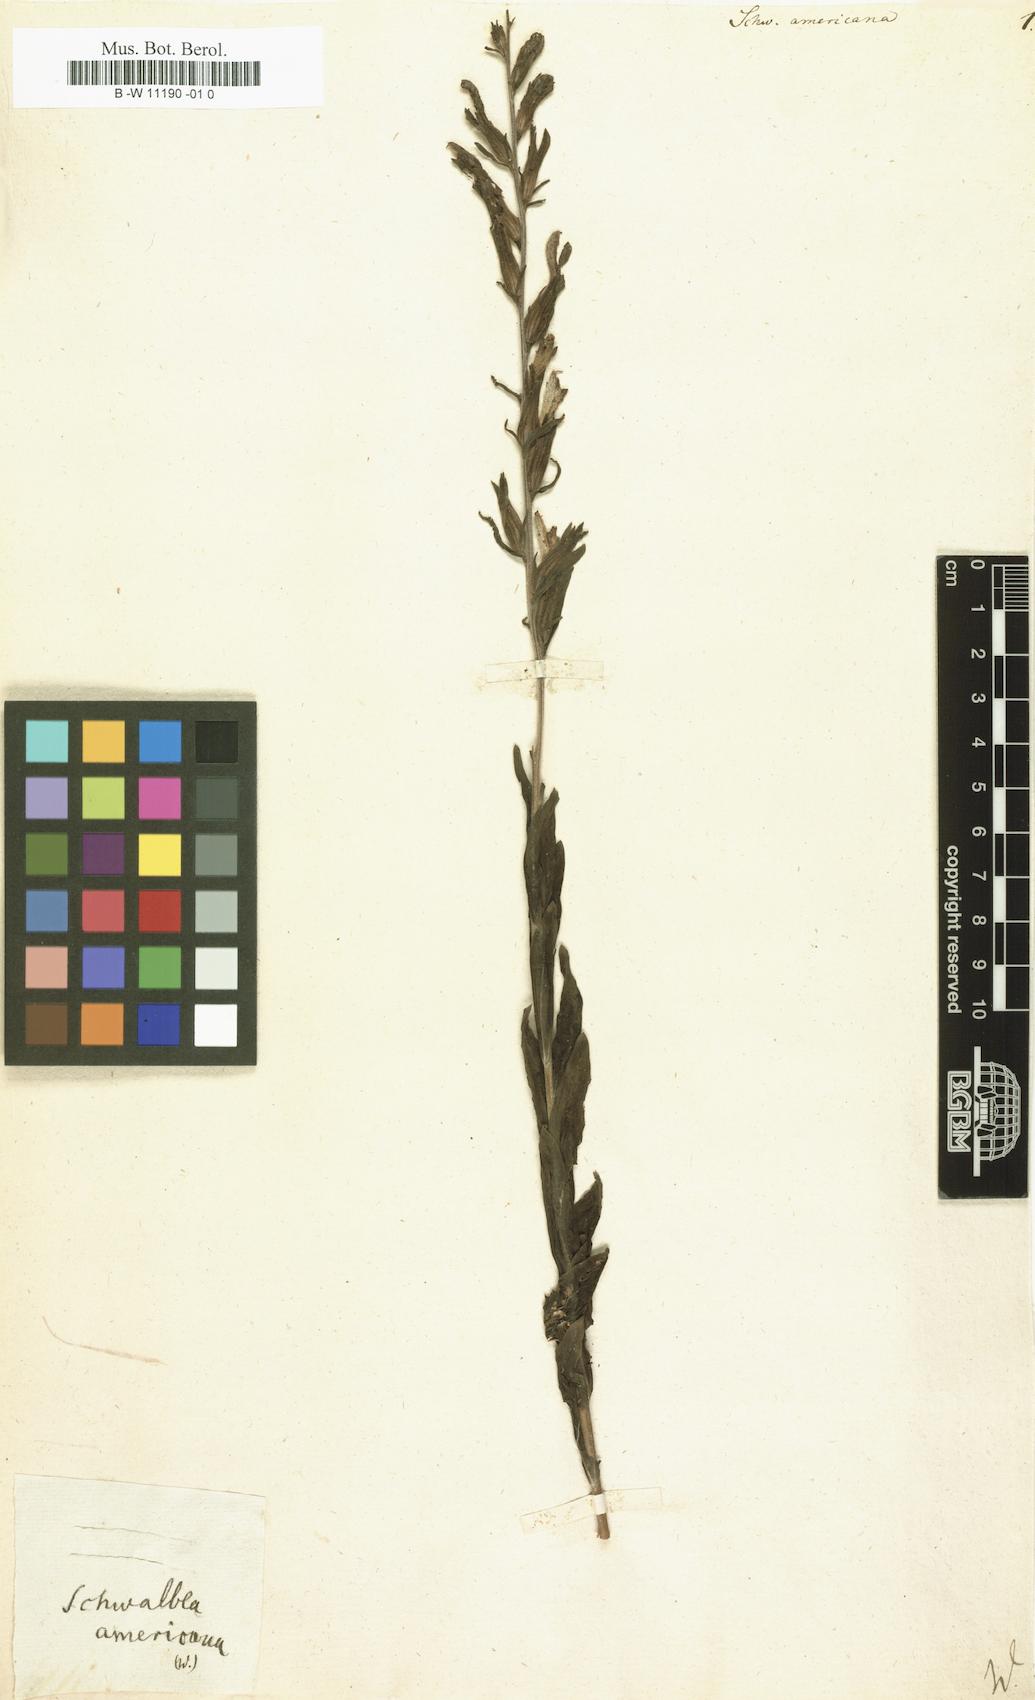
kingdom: Plantae
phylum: Tracheophyta
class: Magnoliopsida
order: Lamiales
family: Orobanchaceae
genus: Schwalbea
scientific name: Schwalbea americana
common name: American chaffseed
